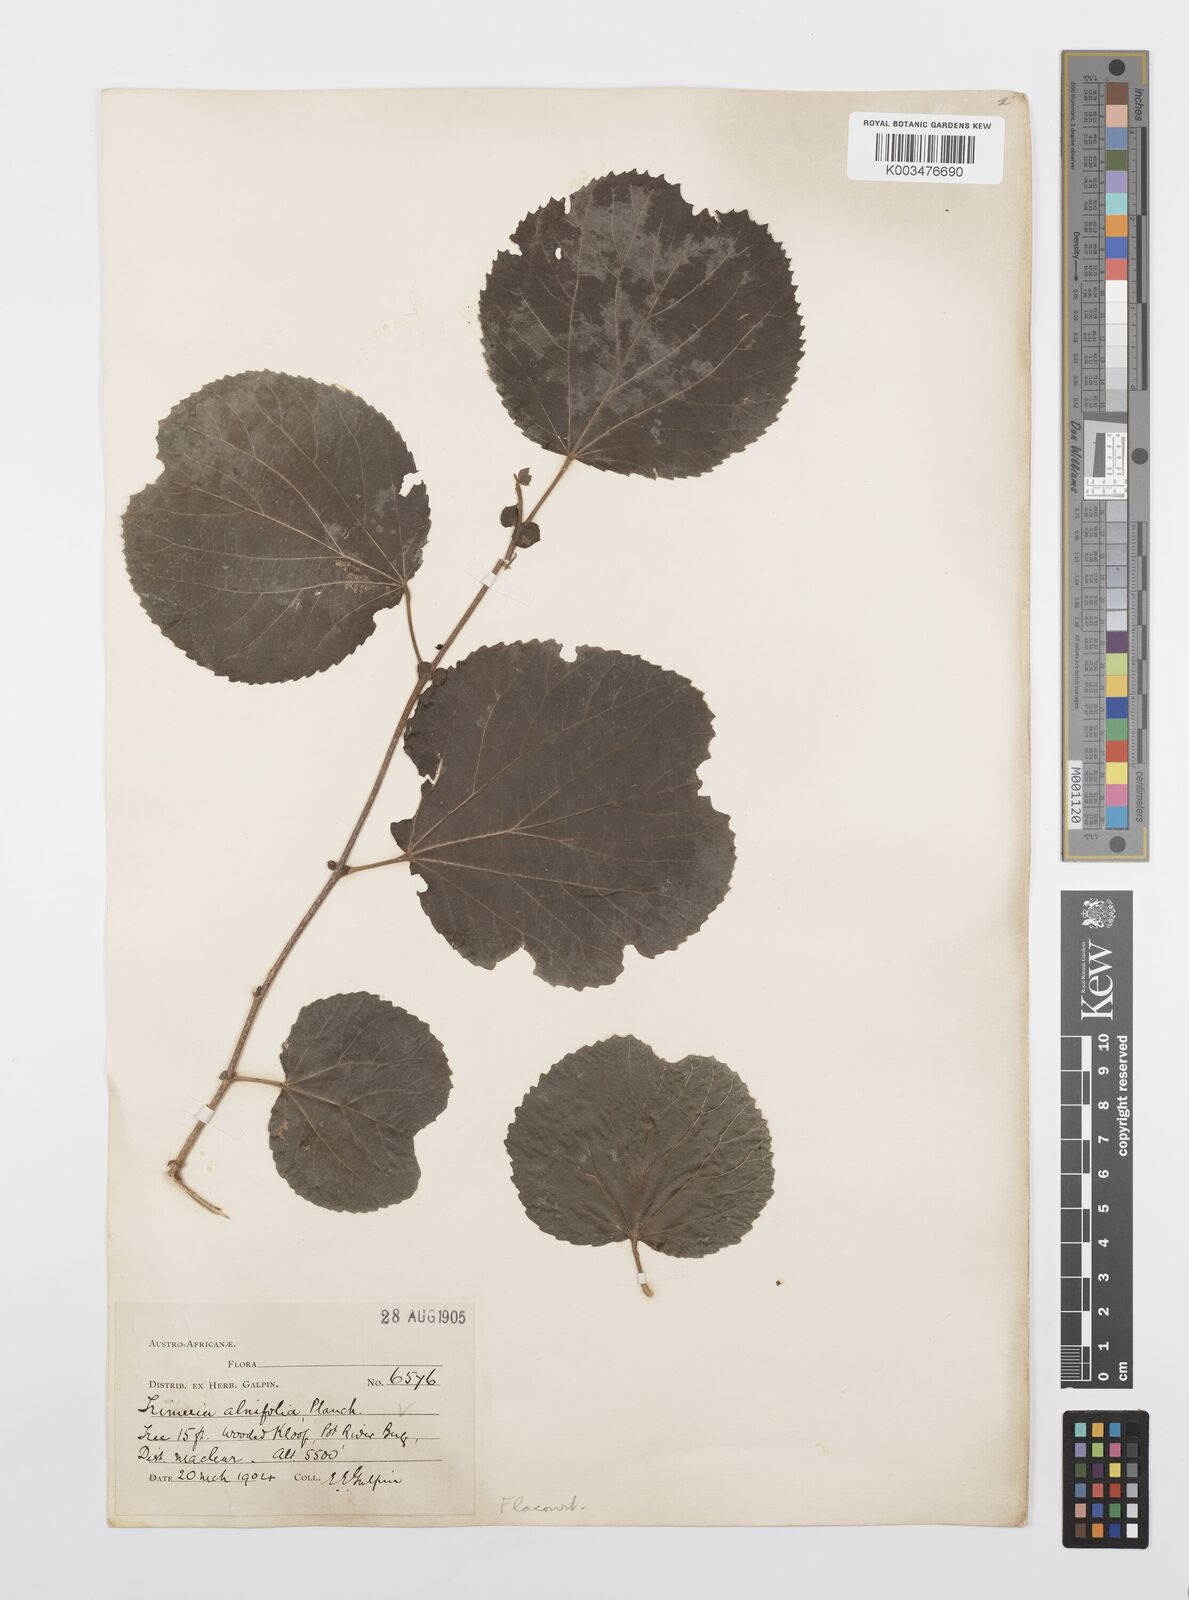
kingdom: Plantae
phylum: Tracheophyta
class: Magnoliopsida
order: Malpighiales
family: Salicaceae
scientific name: Salicaceae
